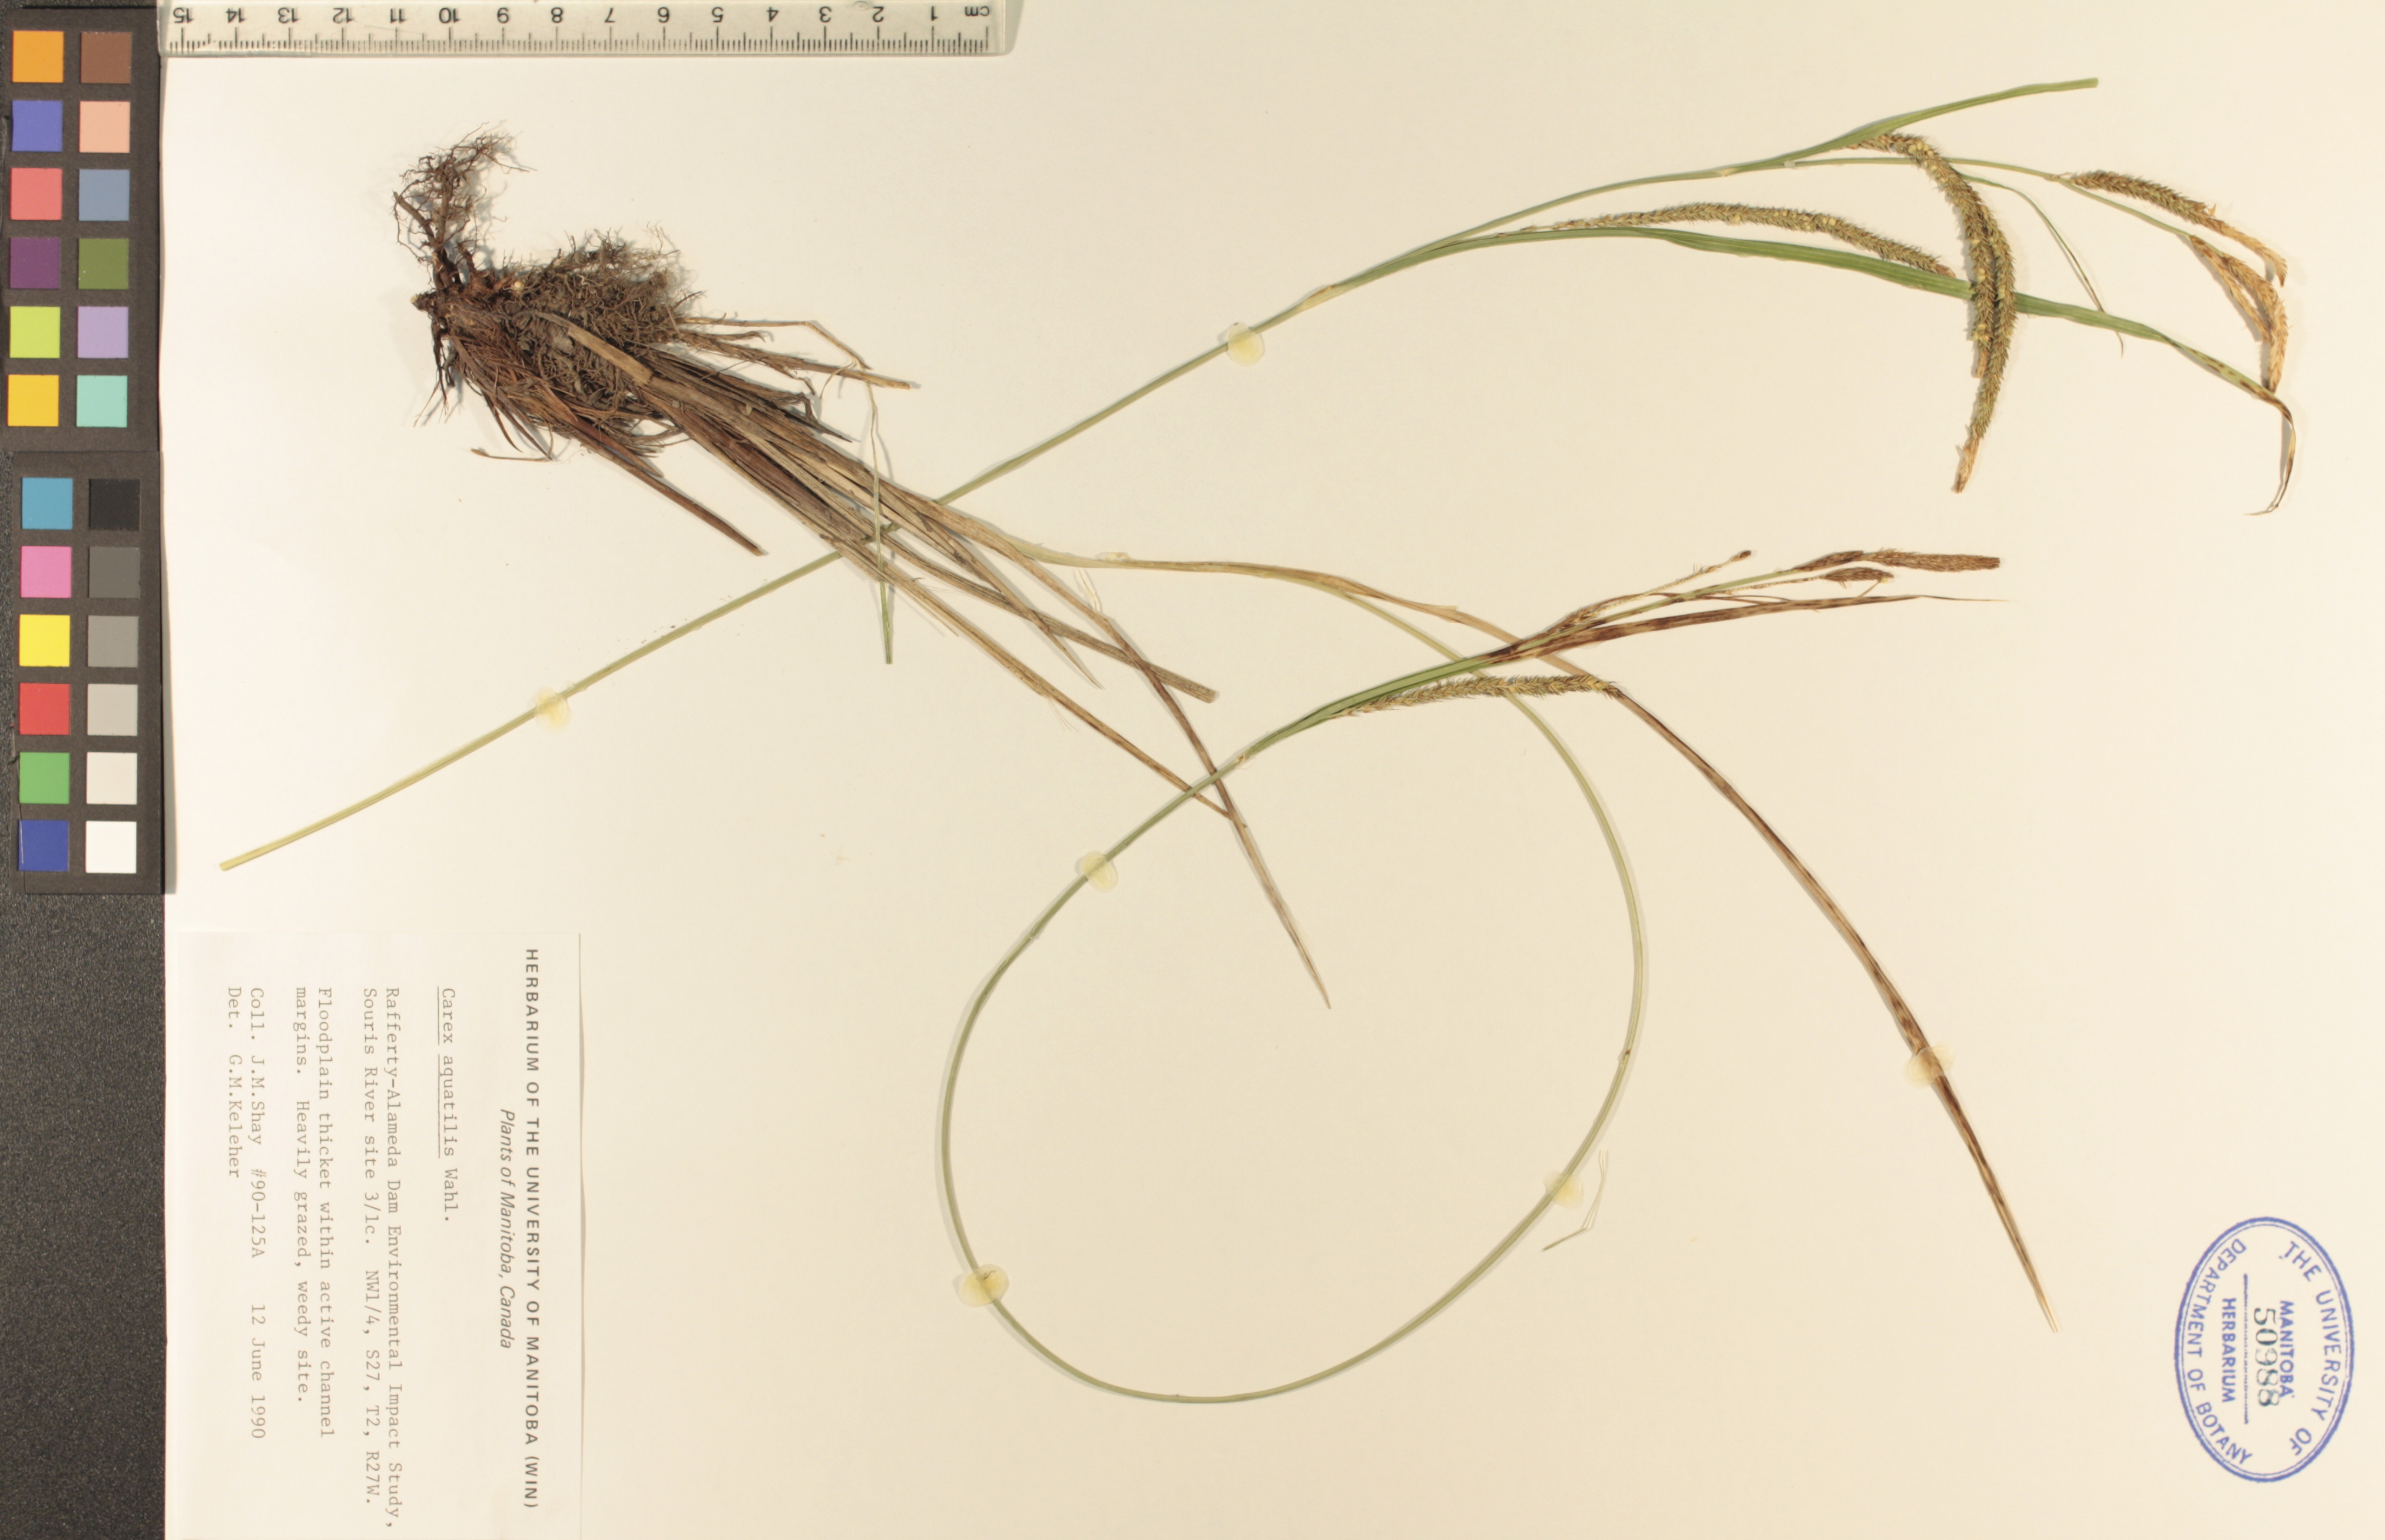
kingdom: Plantae
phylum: Tracheophyta
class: Liliopsida
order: Poales
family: Cyperaceae
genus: Carex
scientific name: Carex aquatilis
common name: Water sedge
